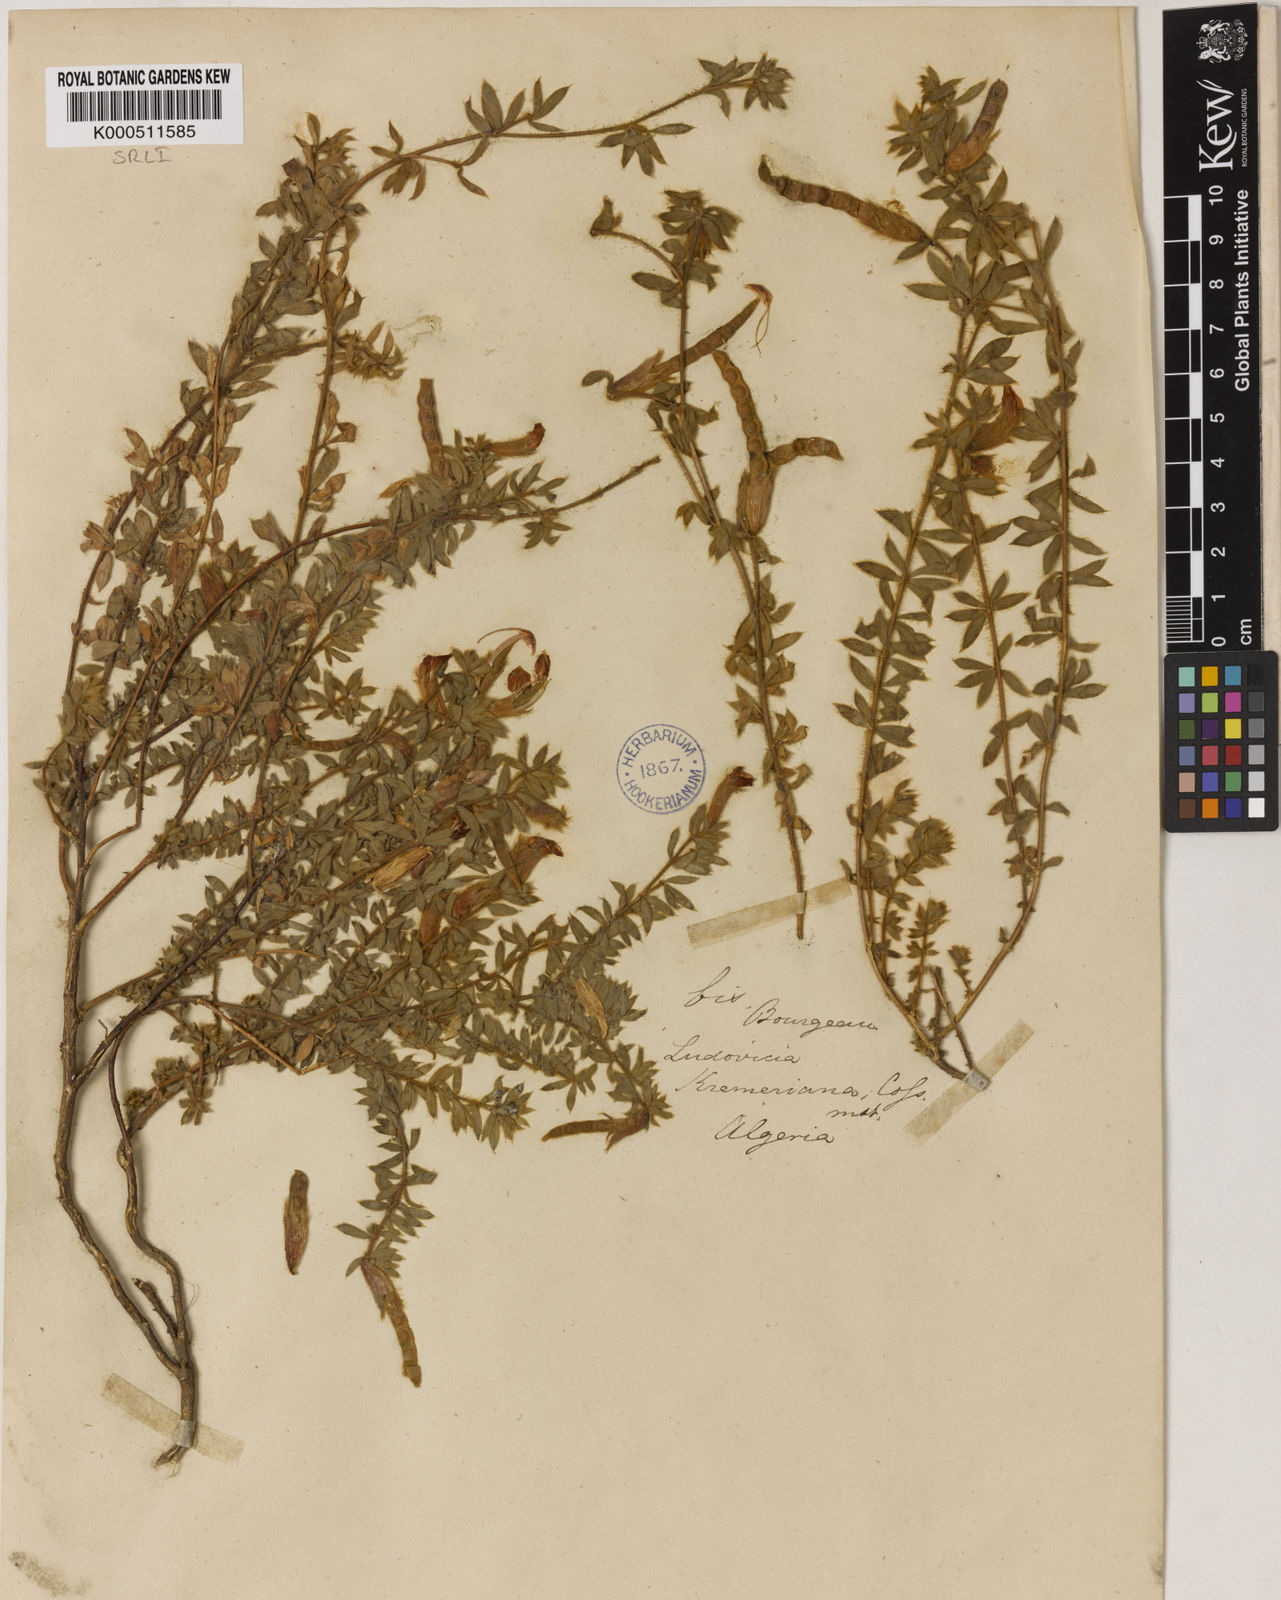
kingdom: Plantae
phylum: Tracheophyta
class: Magnoliopsida
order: Fabales
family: Fabaceae
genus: Hammatolobium
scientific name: Hammatolobium
